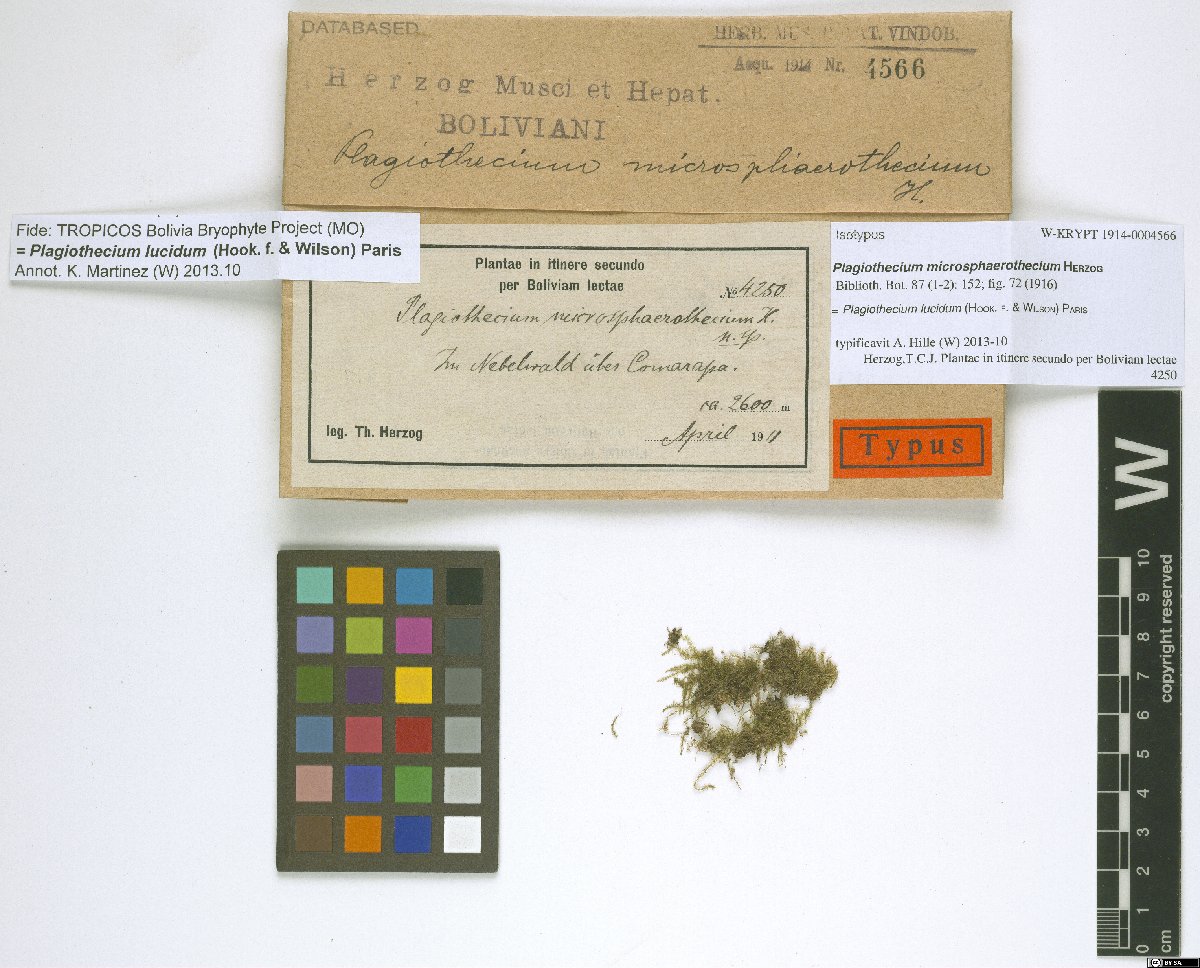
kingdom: Plantae
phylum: Bryophyta
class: Bryopsida
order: Hypnales
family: Plagiotheciaceae
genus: Plagiothecium
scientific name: Plagiothecium lucidum
